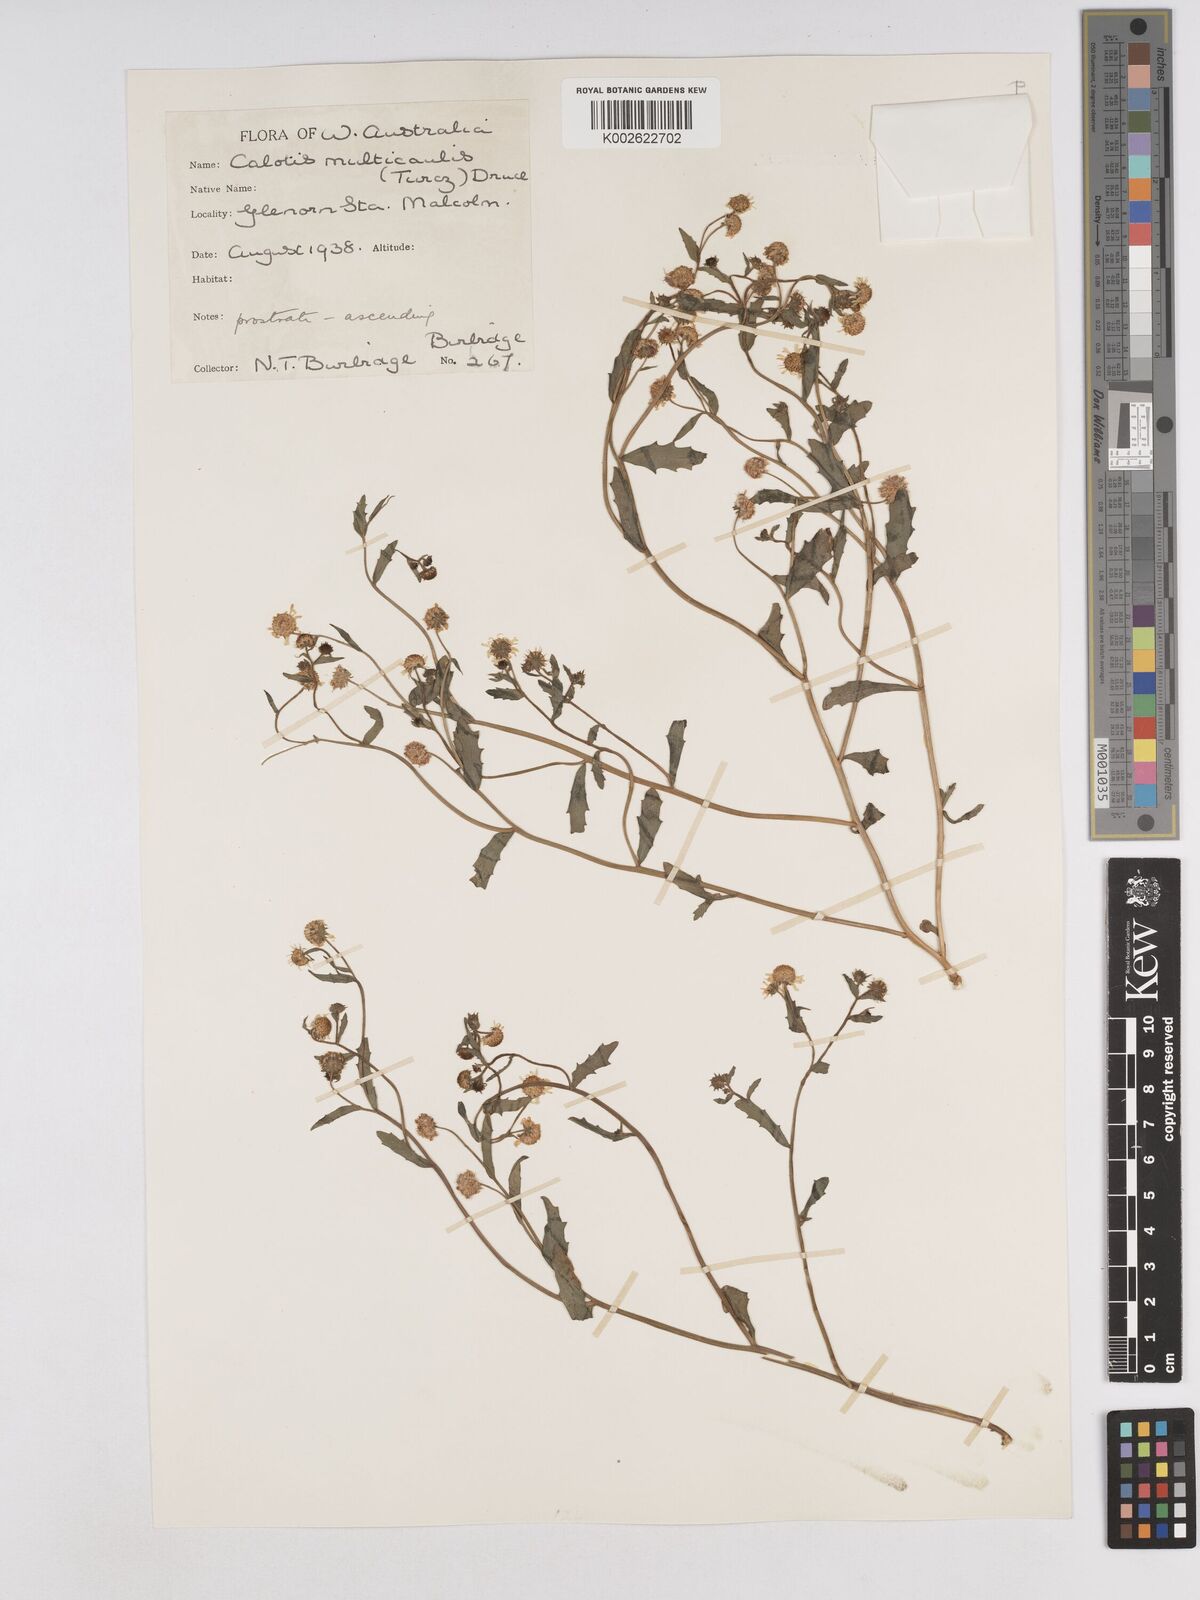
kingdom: Plantae
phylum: Tracheophyta
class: Magnoliopsida
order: Asterales
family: Asteraceae
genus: Calotis
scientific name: Calotis multicaulis
